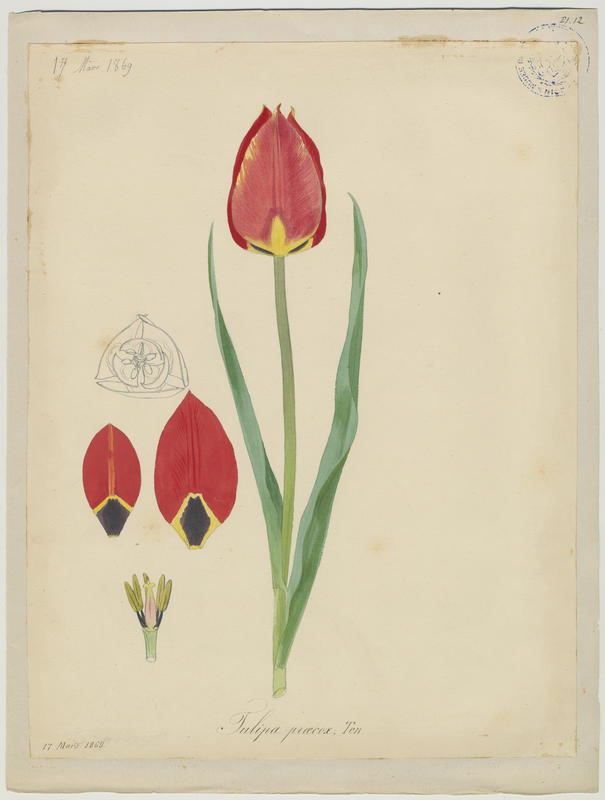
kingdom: Plantae
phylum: Tracheophyta
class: Liliopsida
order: Liliales
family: Liliaceae
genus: Tulipa
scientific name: Tulipa agenensis
